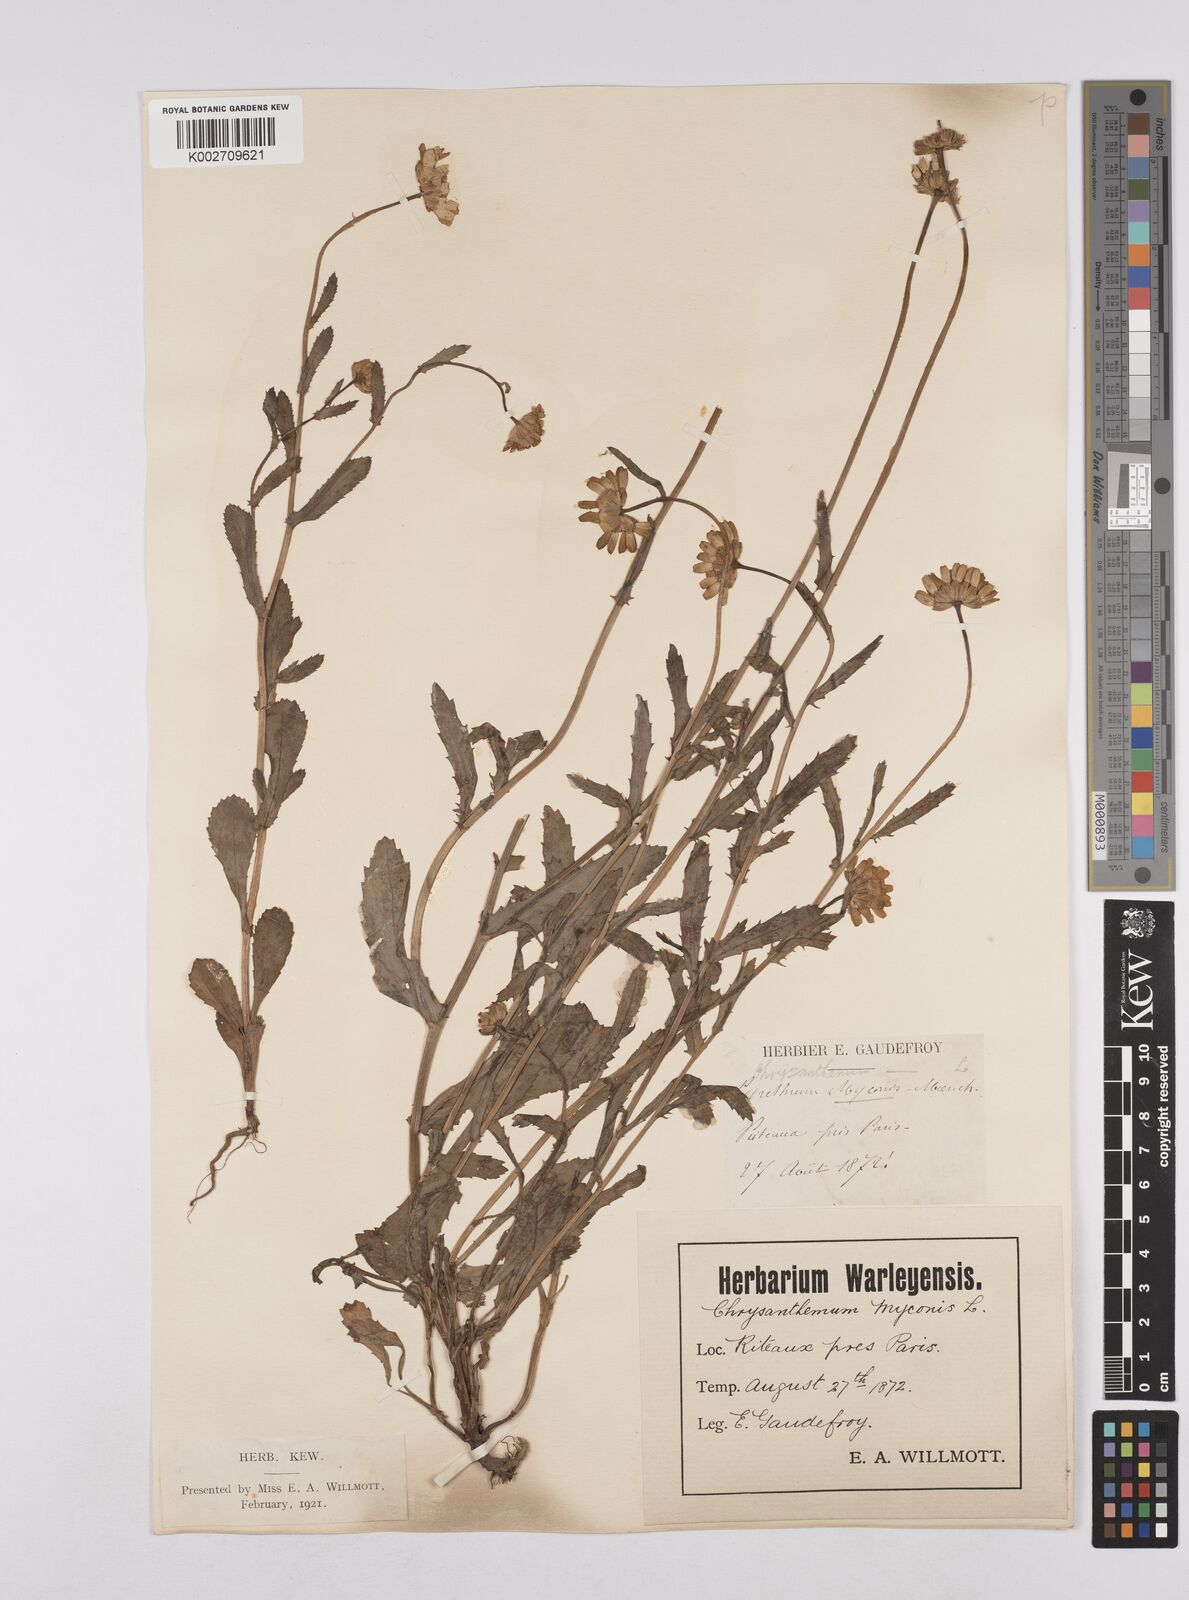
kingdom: Plantae
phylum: Tracheophyta
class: Magnoliopsida
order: Asterales
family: Asteraceae
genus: Coleostephus
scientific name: Coleostephus myconis
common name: Mediterranean marigold
